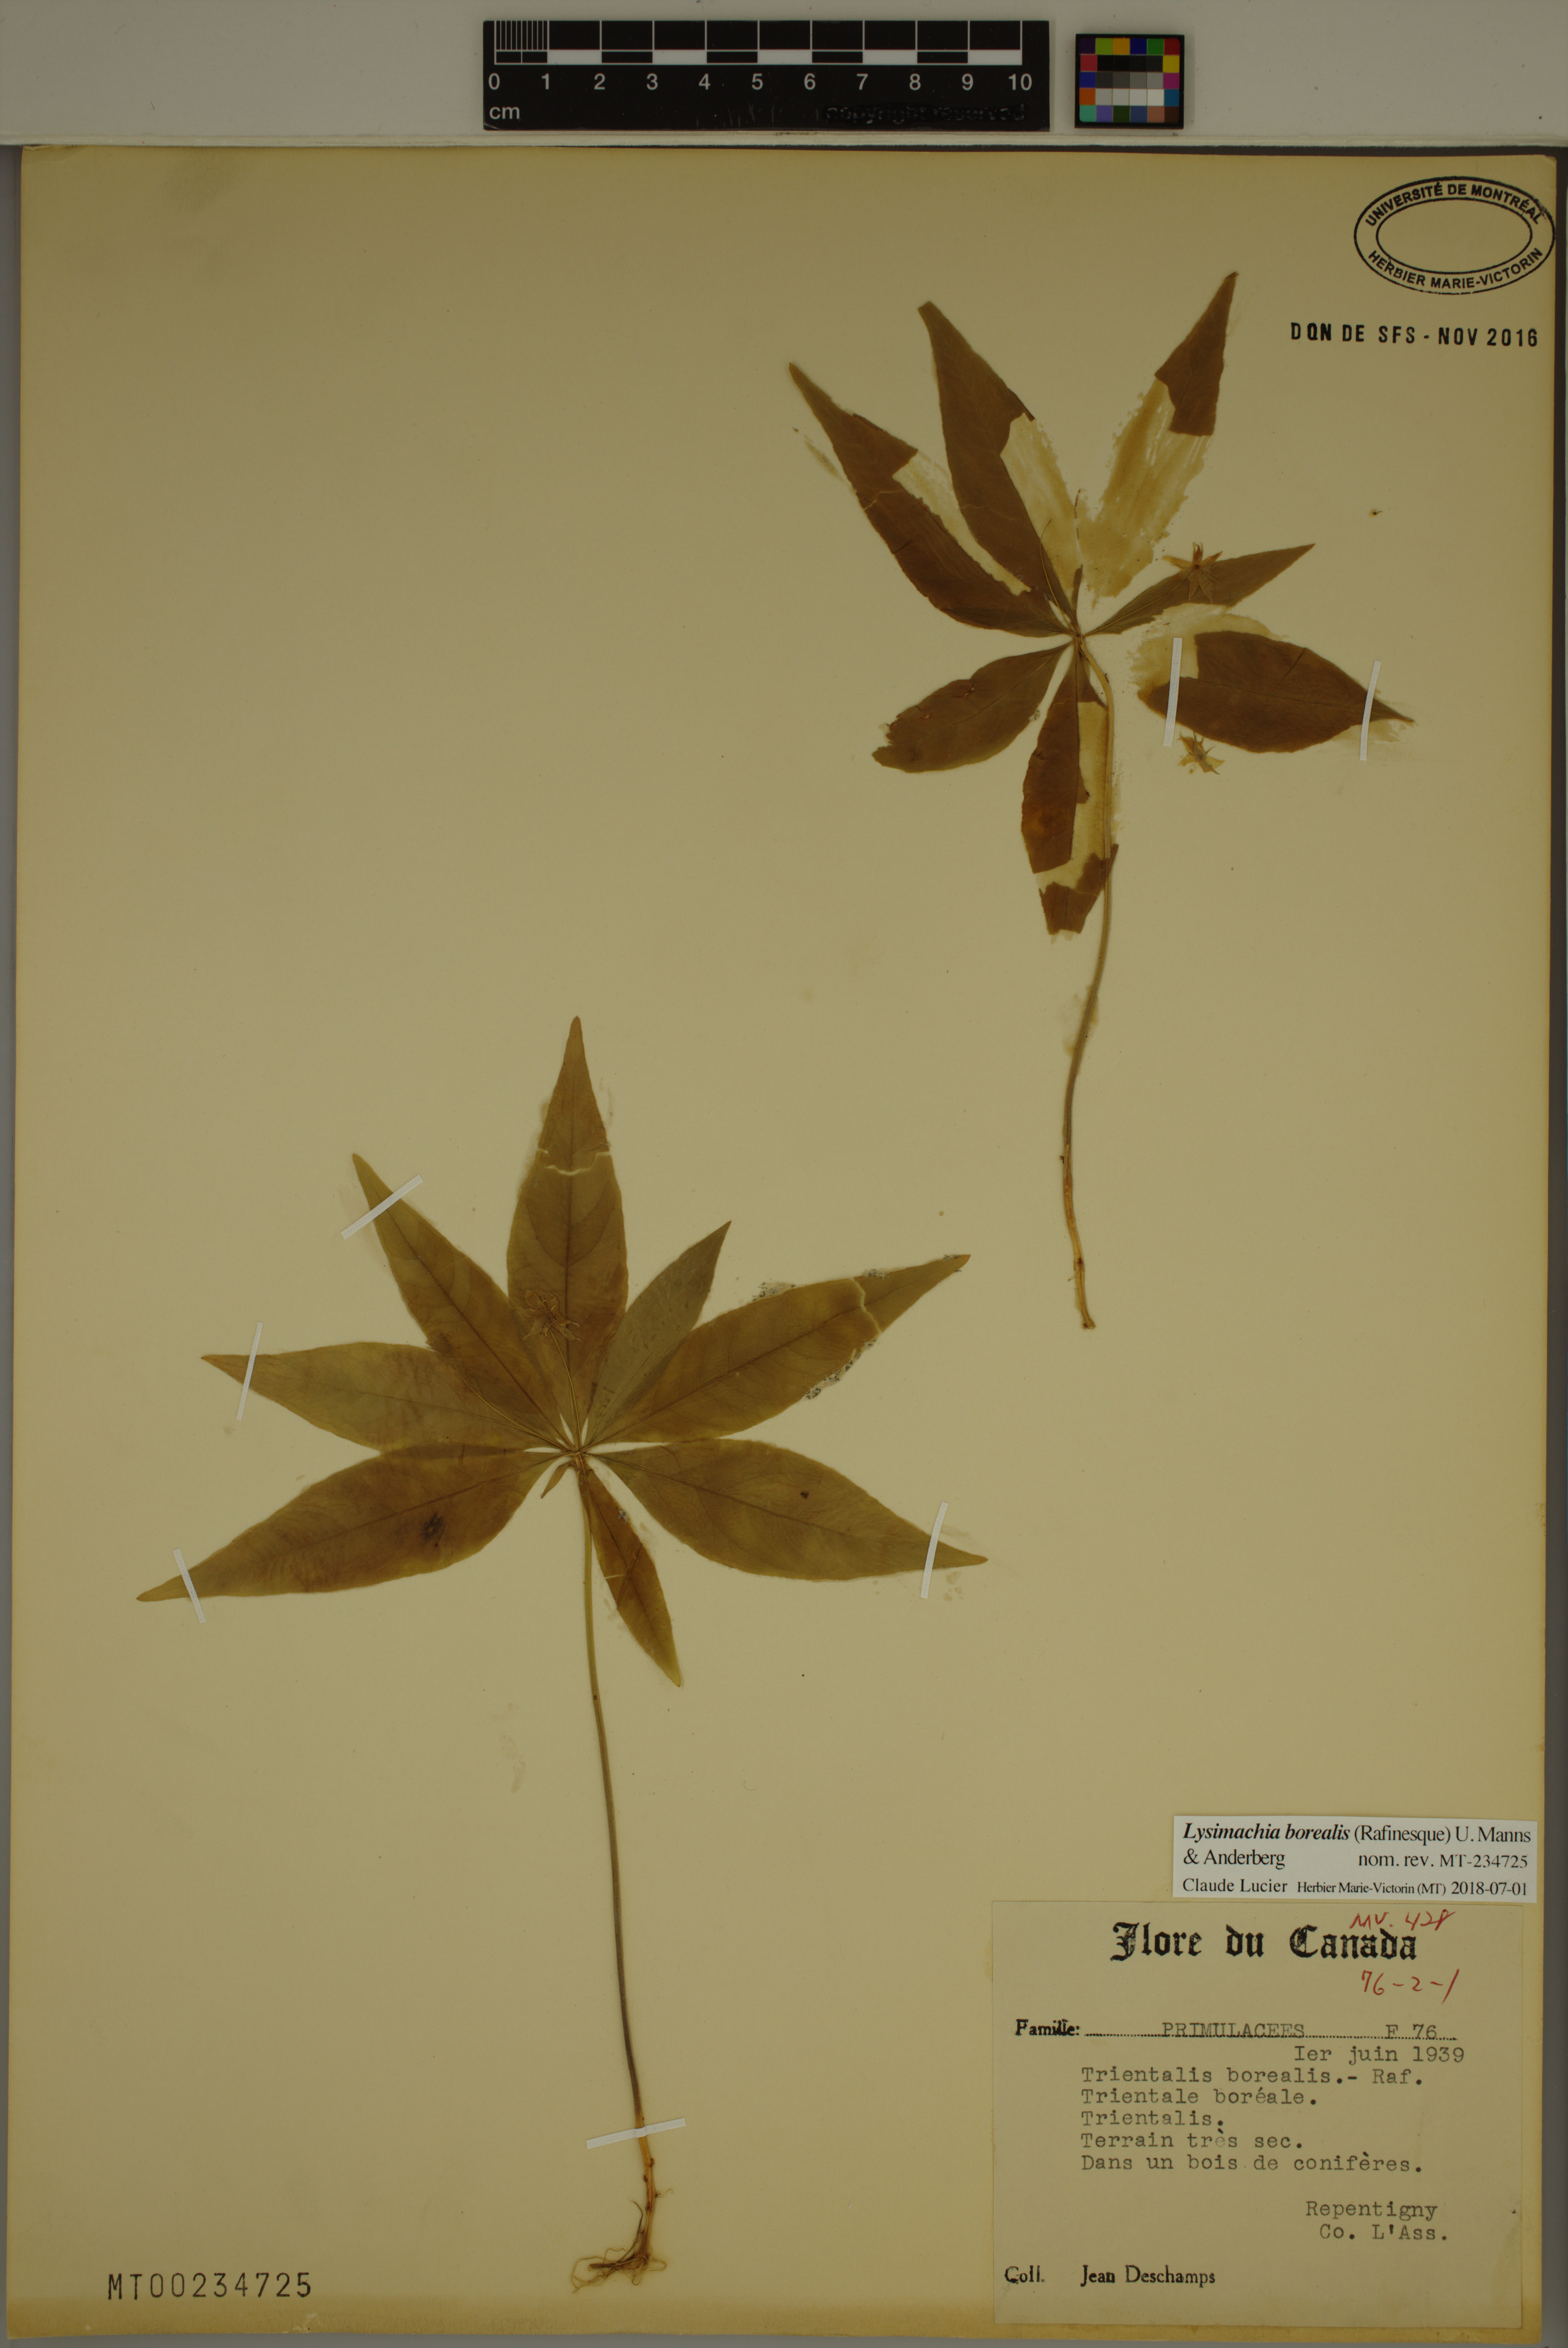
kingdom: Plantae
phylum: Tracheophyta
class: Magnoliopsida
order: Ericales
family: Primulaceae
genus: Lysimachia
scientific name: Lysimachia borealis
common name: American starflower
